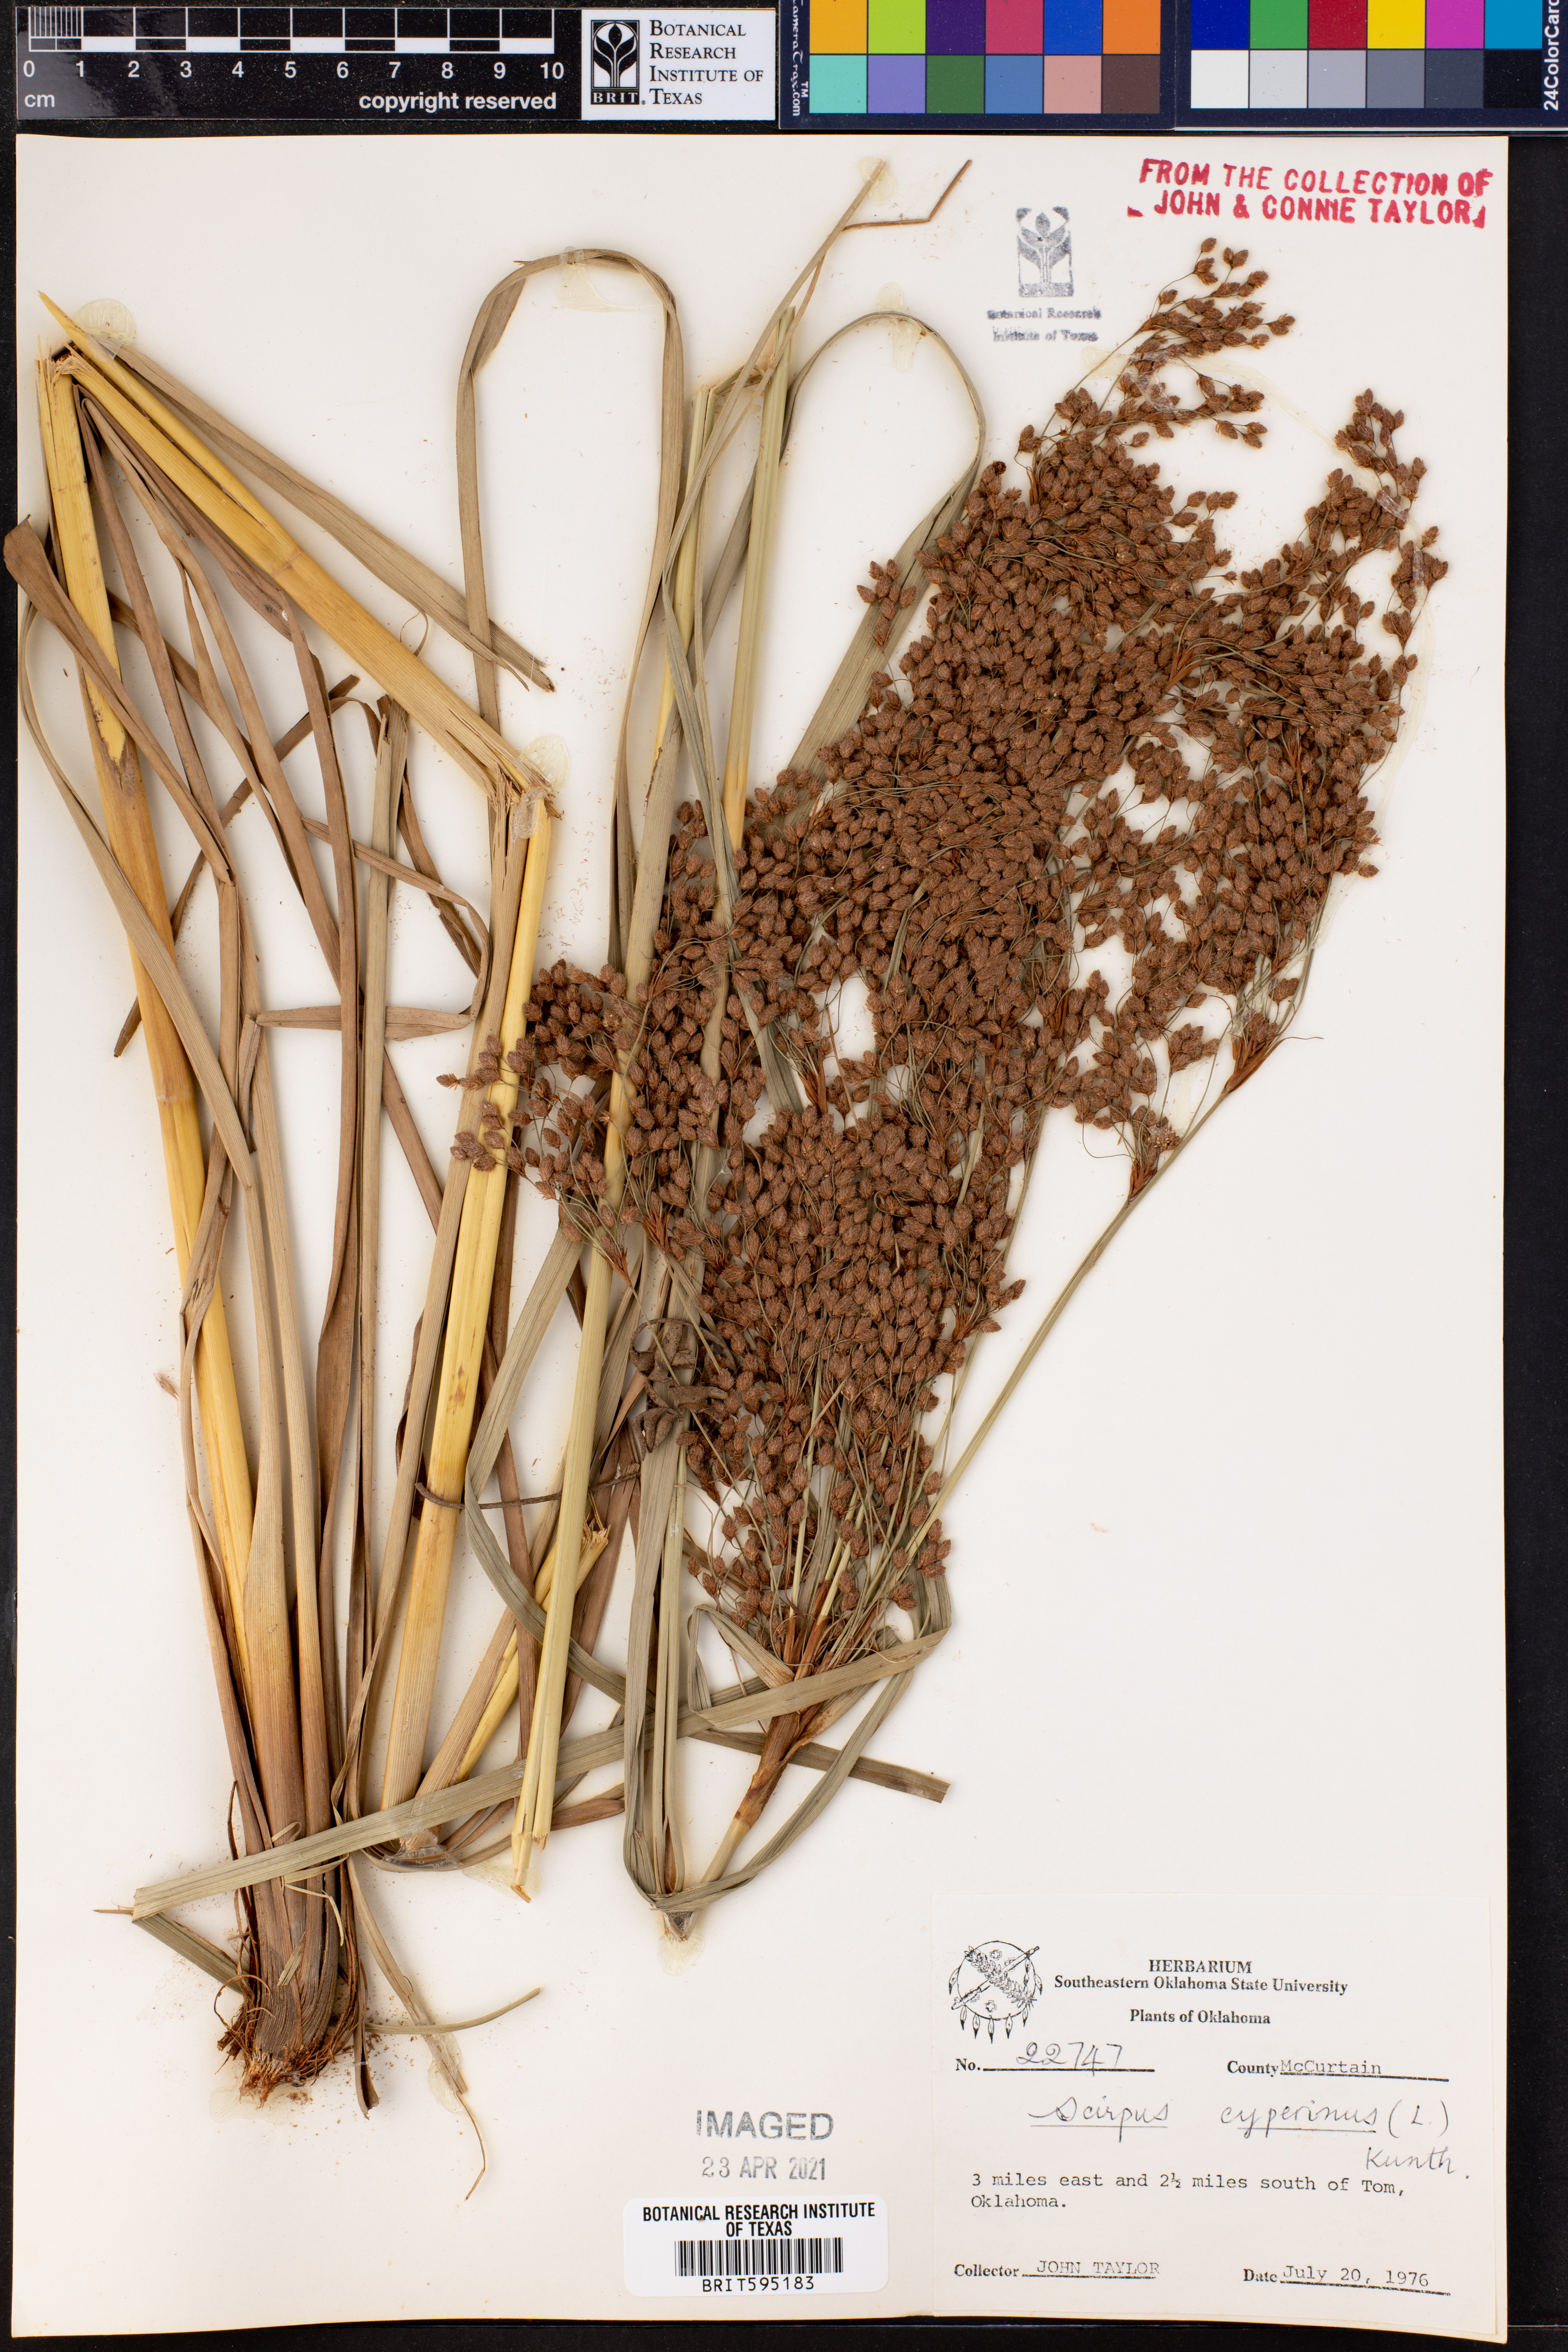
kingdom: Plantae
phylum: Tracheophyta
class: Liliopsida
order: Poales
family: Cyperaceae
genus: Scirpus
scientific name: Scirpus cyperinus
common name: Black-sheathed bulrush
